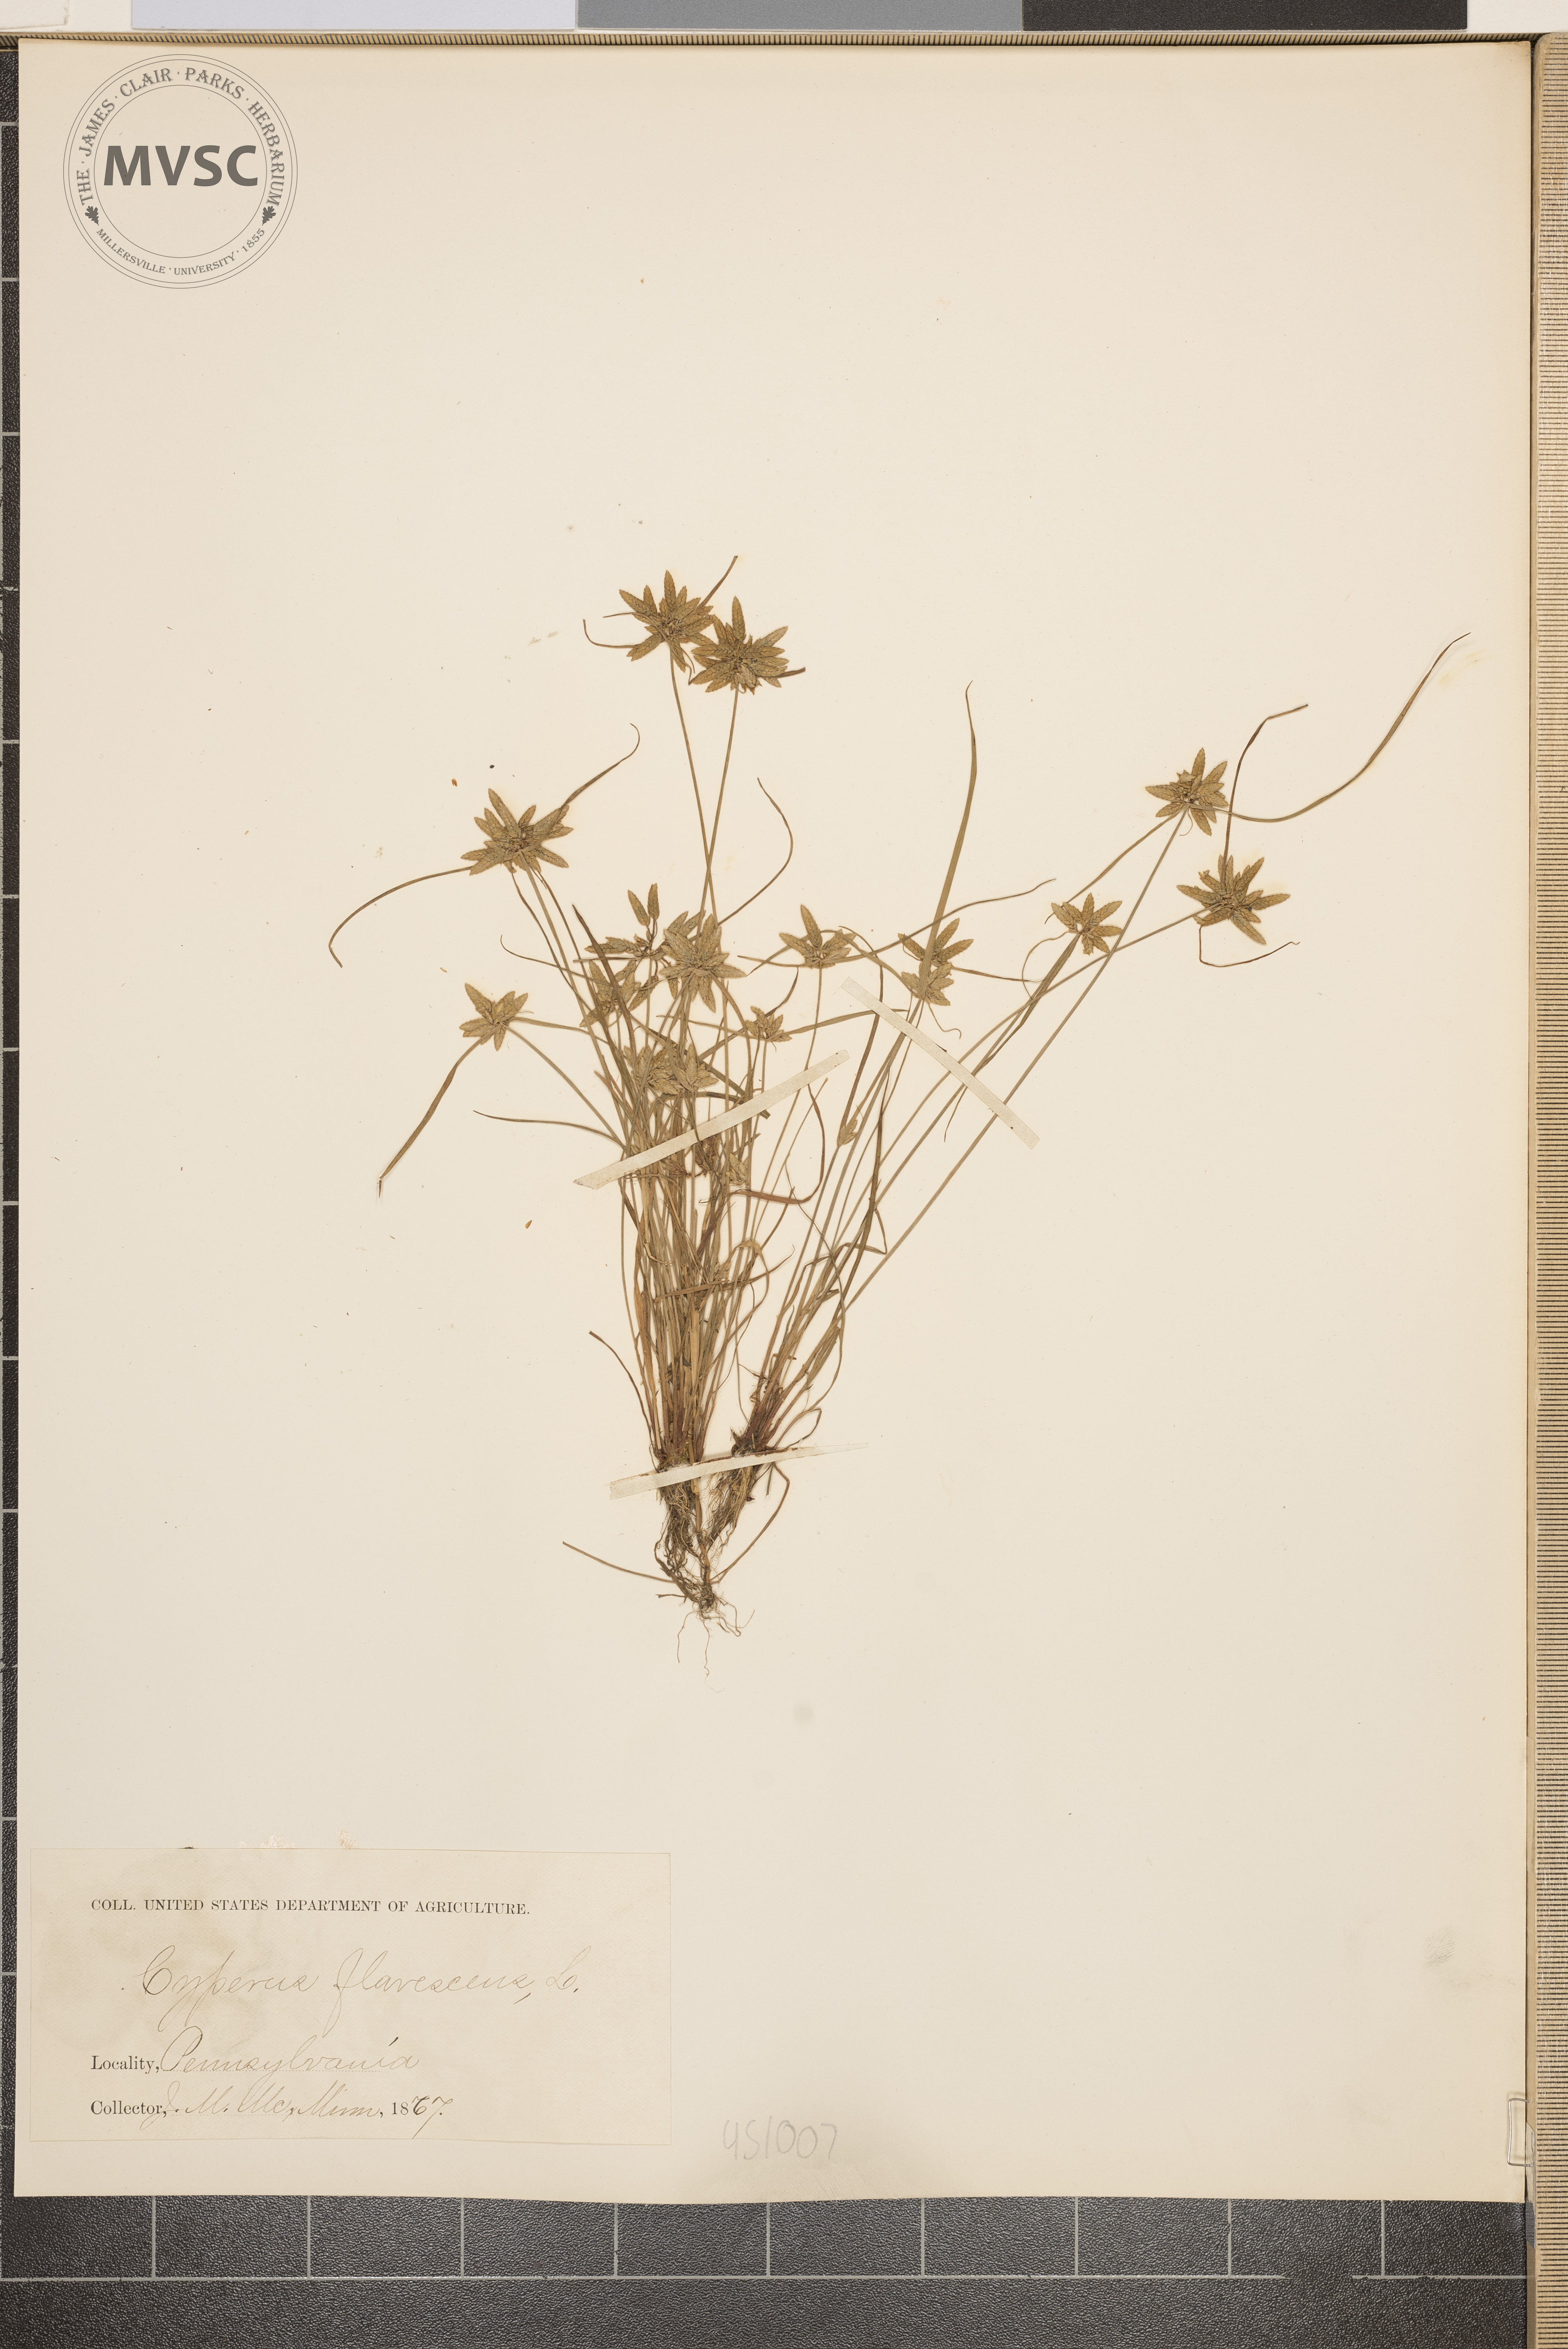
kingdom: Plantae
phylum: Tracheophyta
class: Liliopsida
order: Poales
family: Cyperaceae
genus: Cyperus
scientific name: Cyperus flavescens
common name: Yellow galingale
